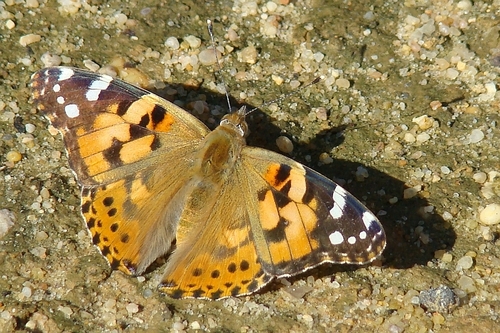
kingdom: Animalia
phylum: Arthropoda
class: Insecta
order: Lepidoptera
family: Nymphalidae
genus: Vanessa
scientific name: Vanessa cardui
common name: Painted lady
